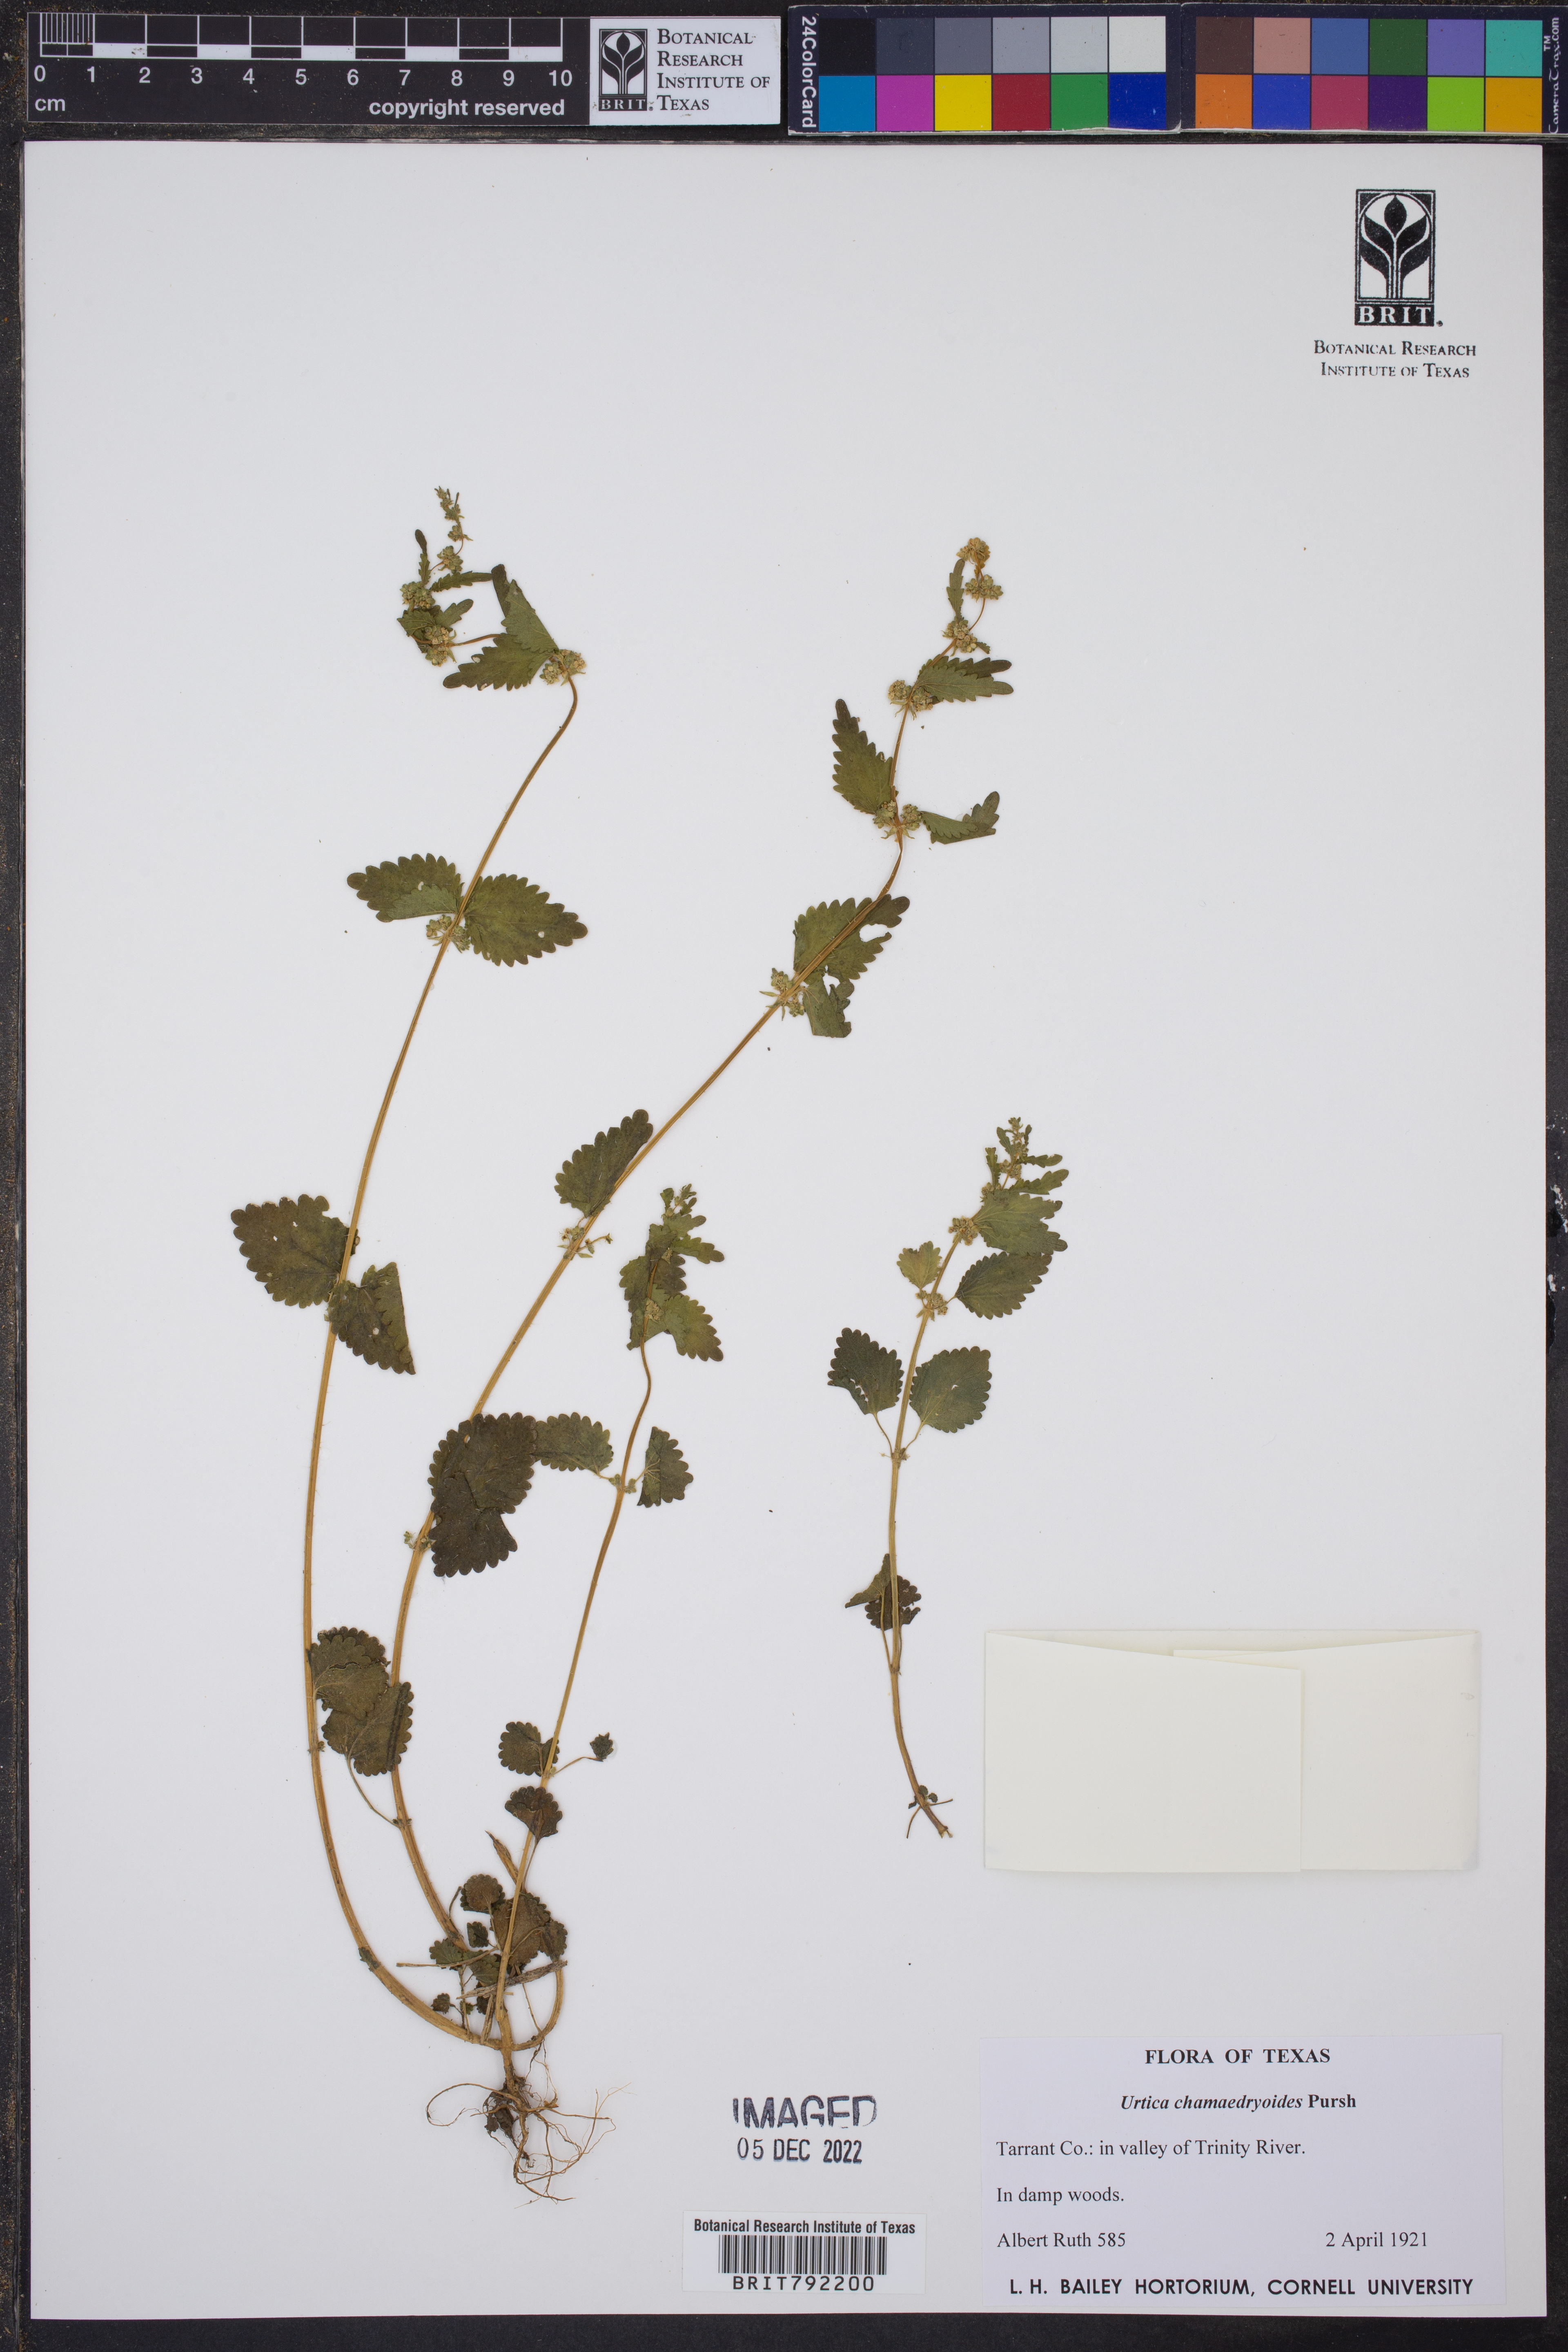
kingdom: Plantae
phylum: Tracheophyta
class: Magnoliopsida
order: Rosales
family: Urticaceae
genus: Urtica
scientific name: Urtica chamaedryoides
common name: Heart-leaf nettle
